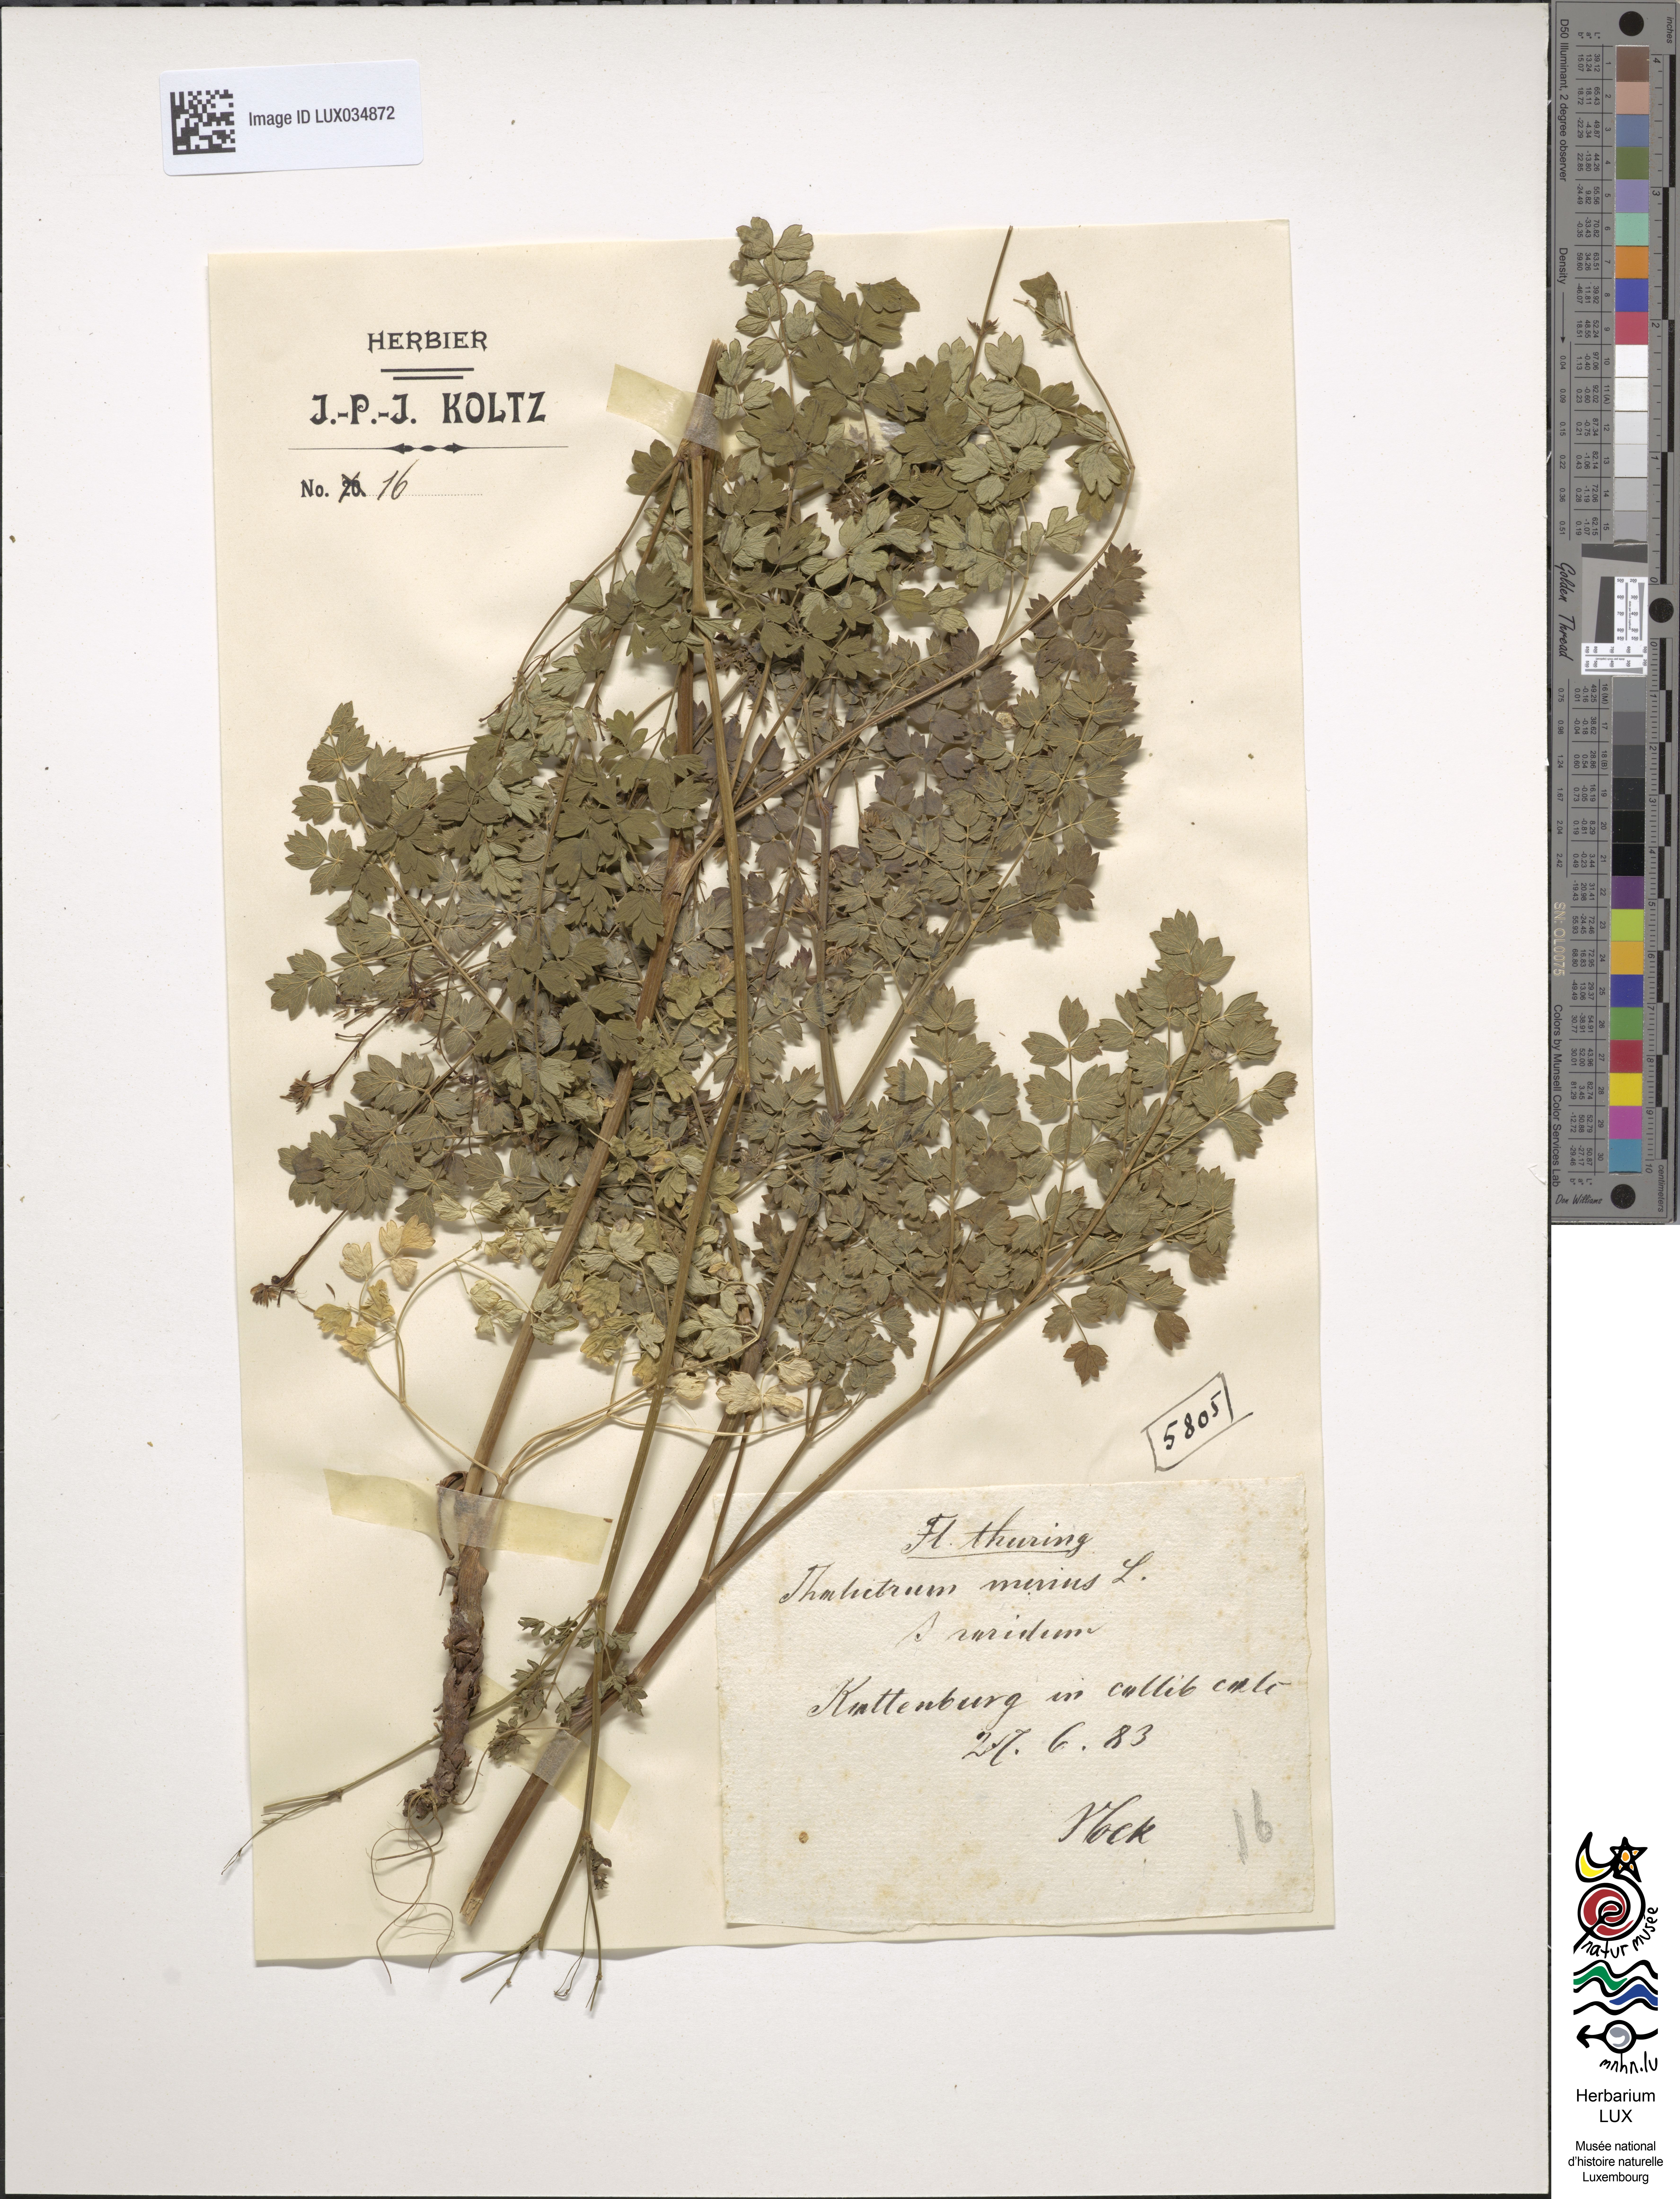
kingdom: Plantae
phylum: Tracheophyta
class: Magnoliopsida
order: Ranunculales
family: Ranunculaceae
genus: Thalictrum
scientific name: Thalictrum minus
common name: Lesser meadow-rue
